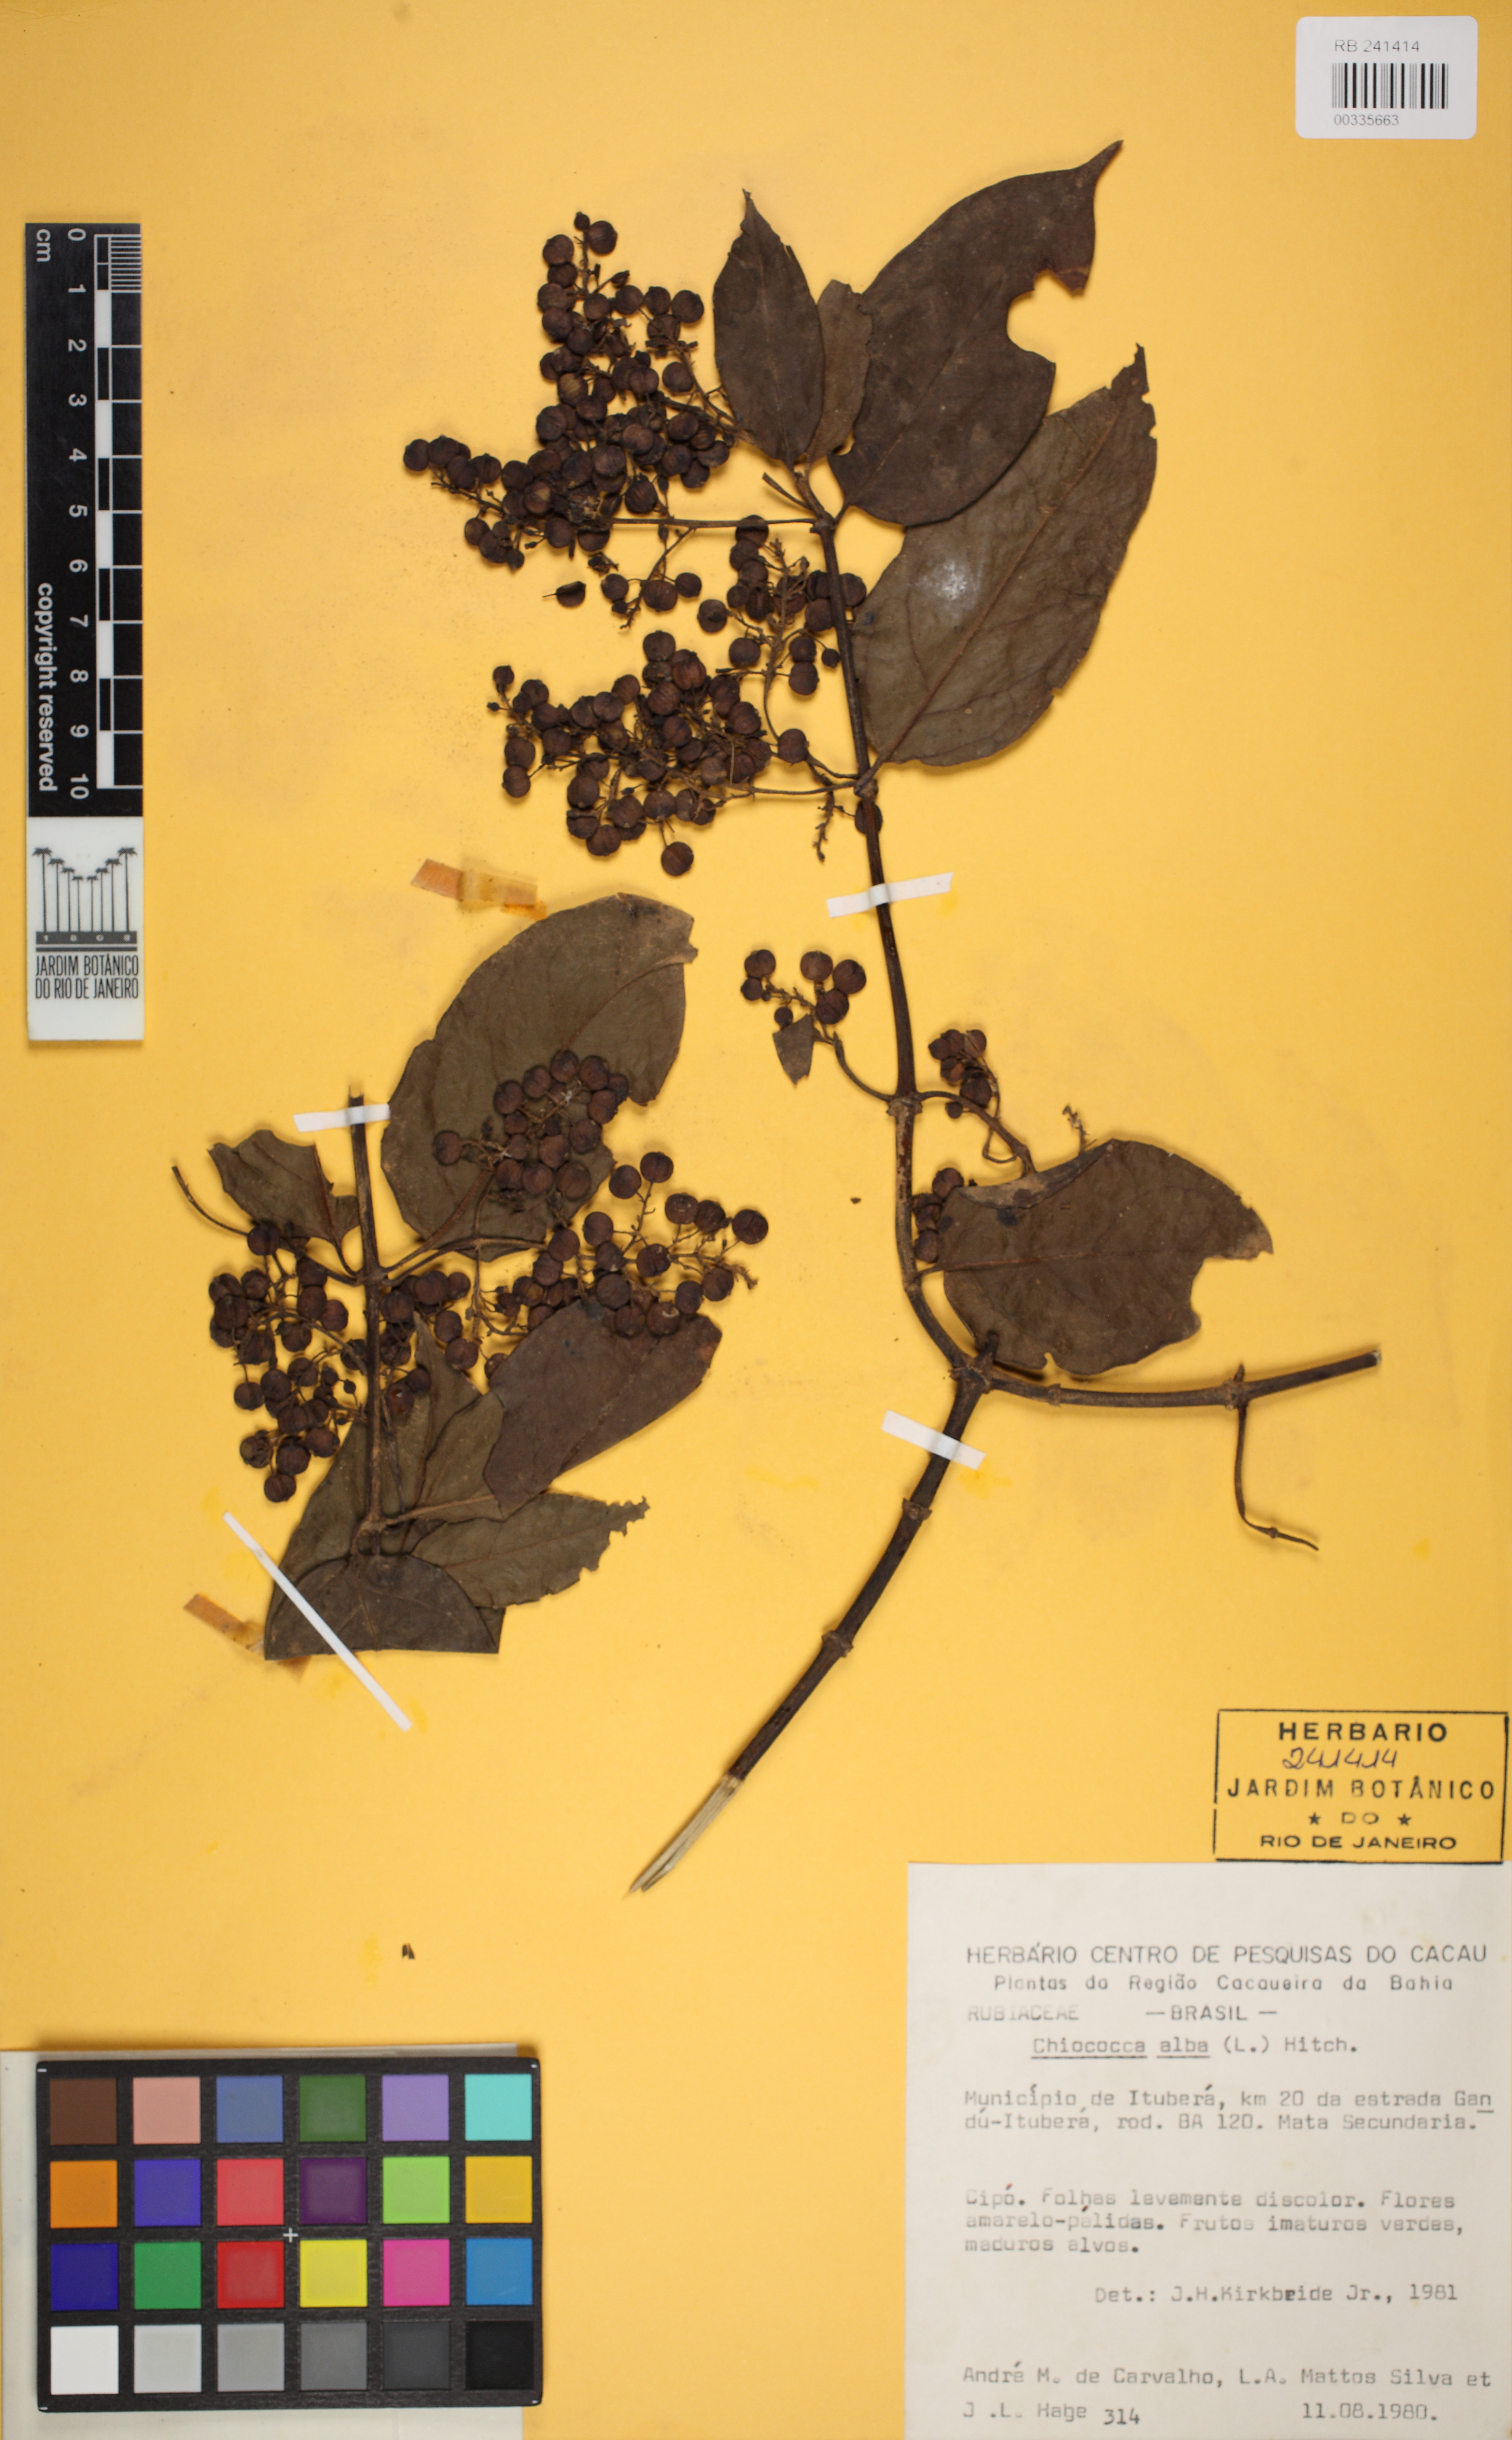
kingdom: Plantae
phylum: Tracheophyta
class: Magnoliopsida
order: Gentianales
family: Rubiaceae
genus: Chiococca
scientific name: Chiococca alba
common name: Snowberry
